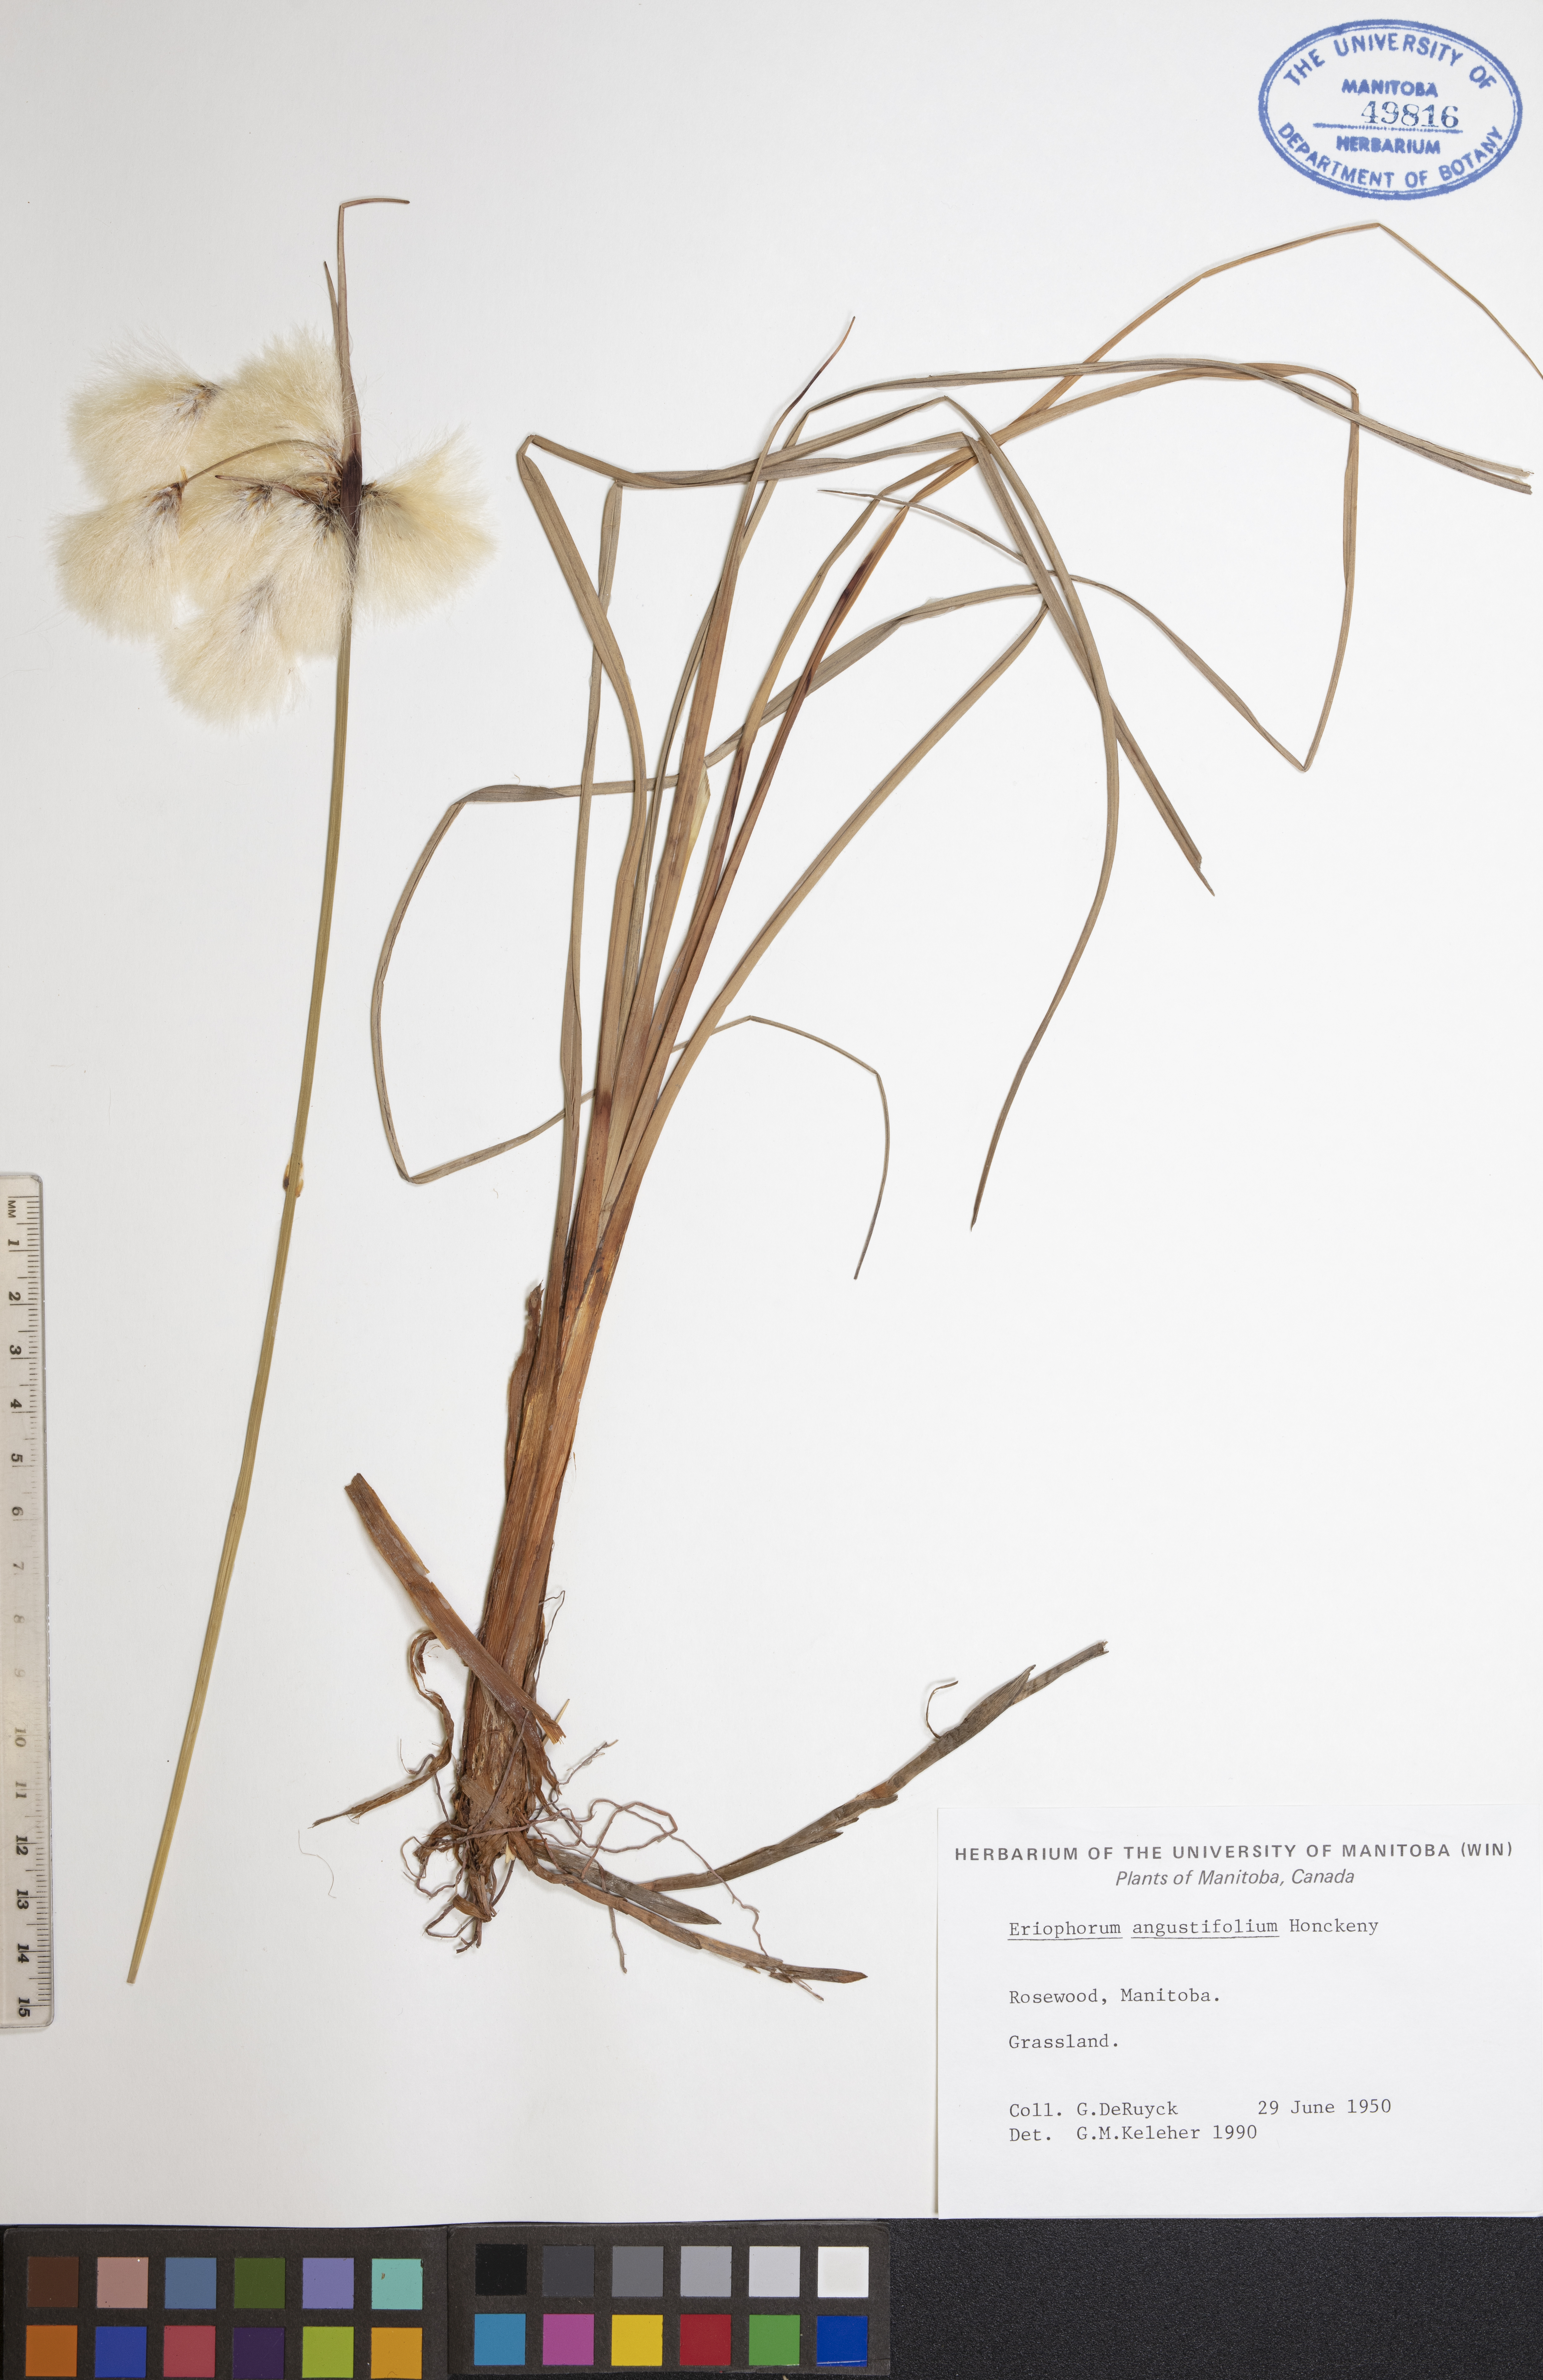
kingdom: Plantae
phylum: Tracheophyta
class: Liliopsida
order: Poales
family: Cyperaceae
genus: Eriophorum
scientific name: Eriophorum angustifolium
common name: Common cottongrass
